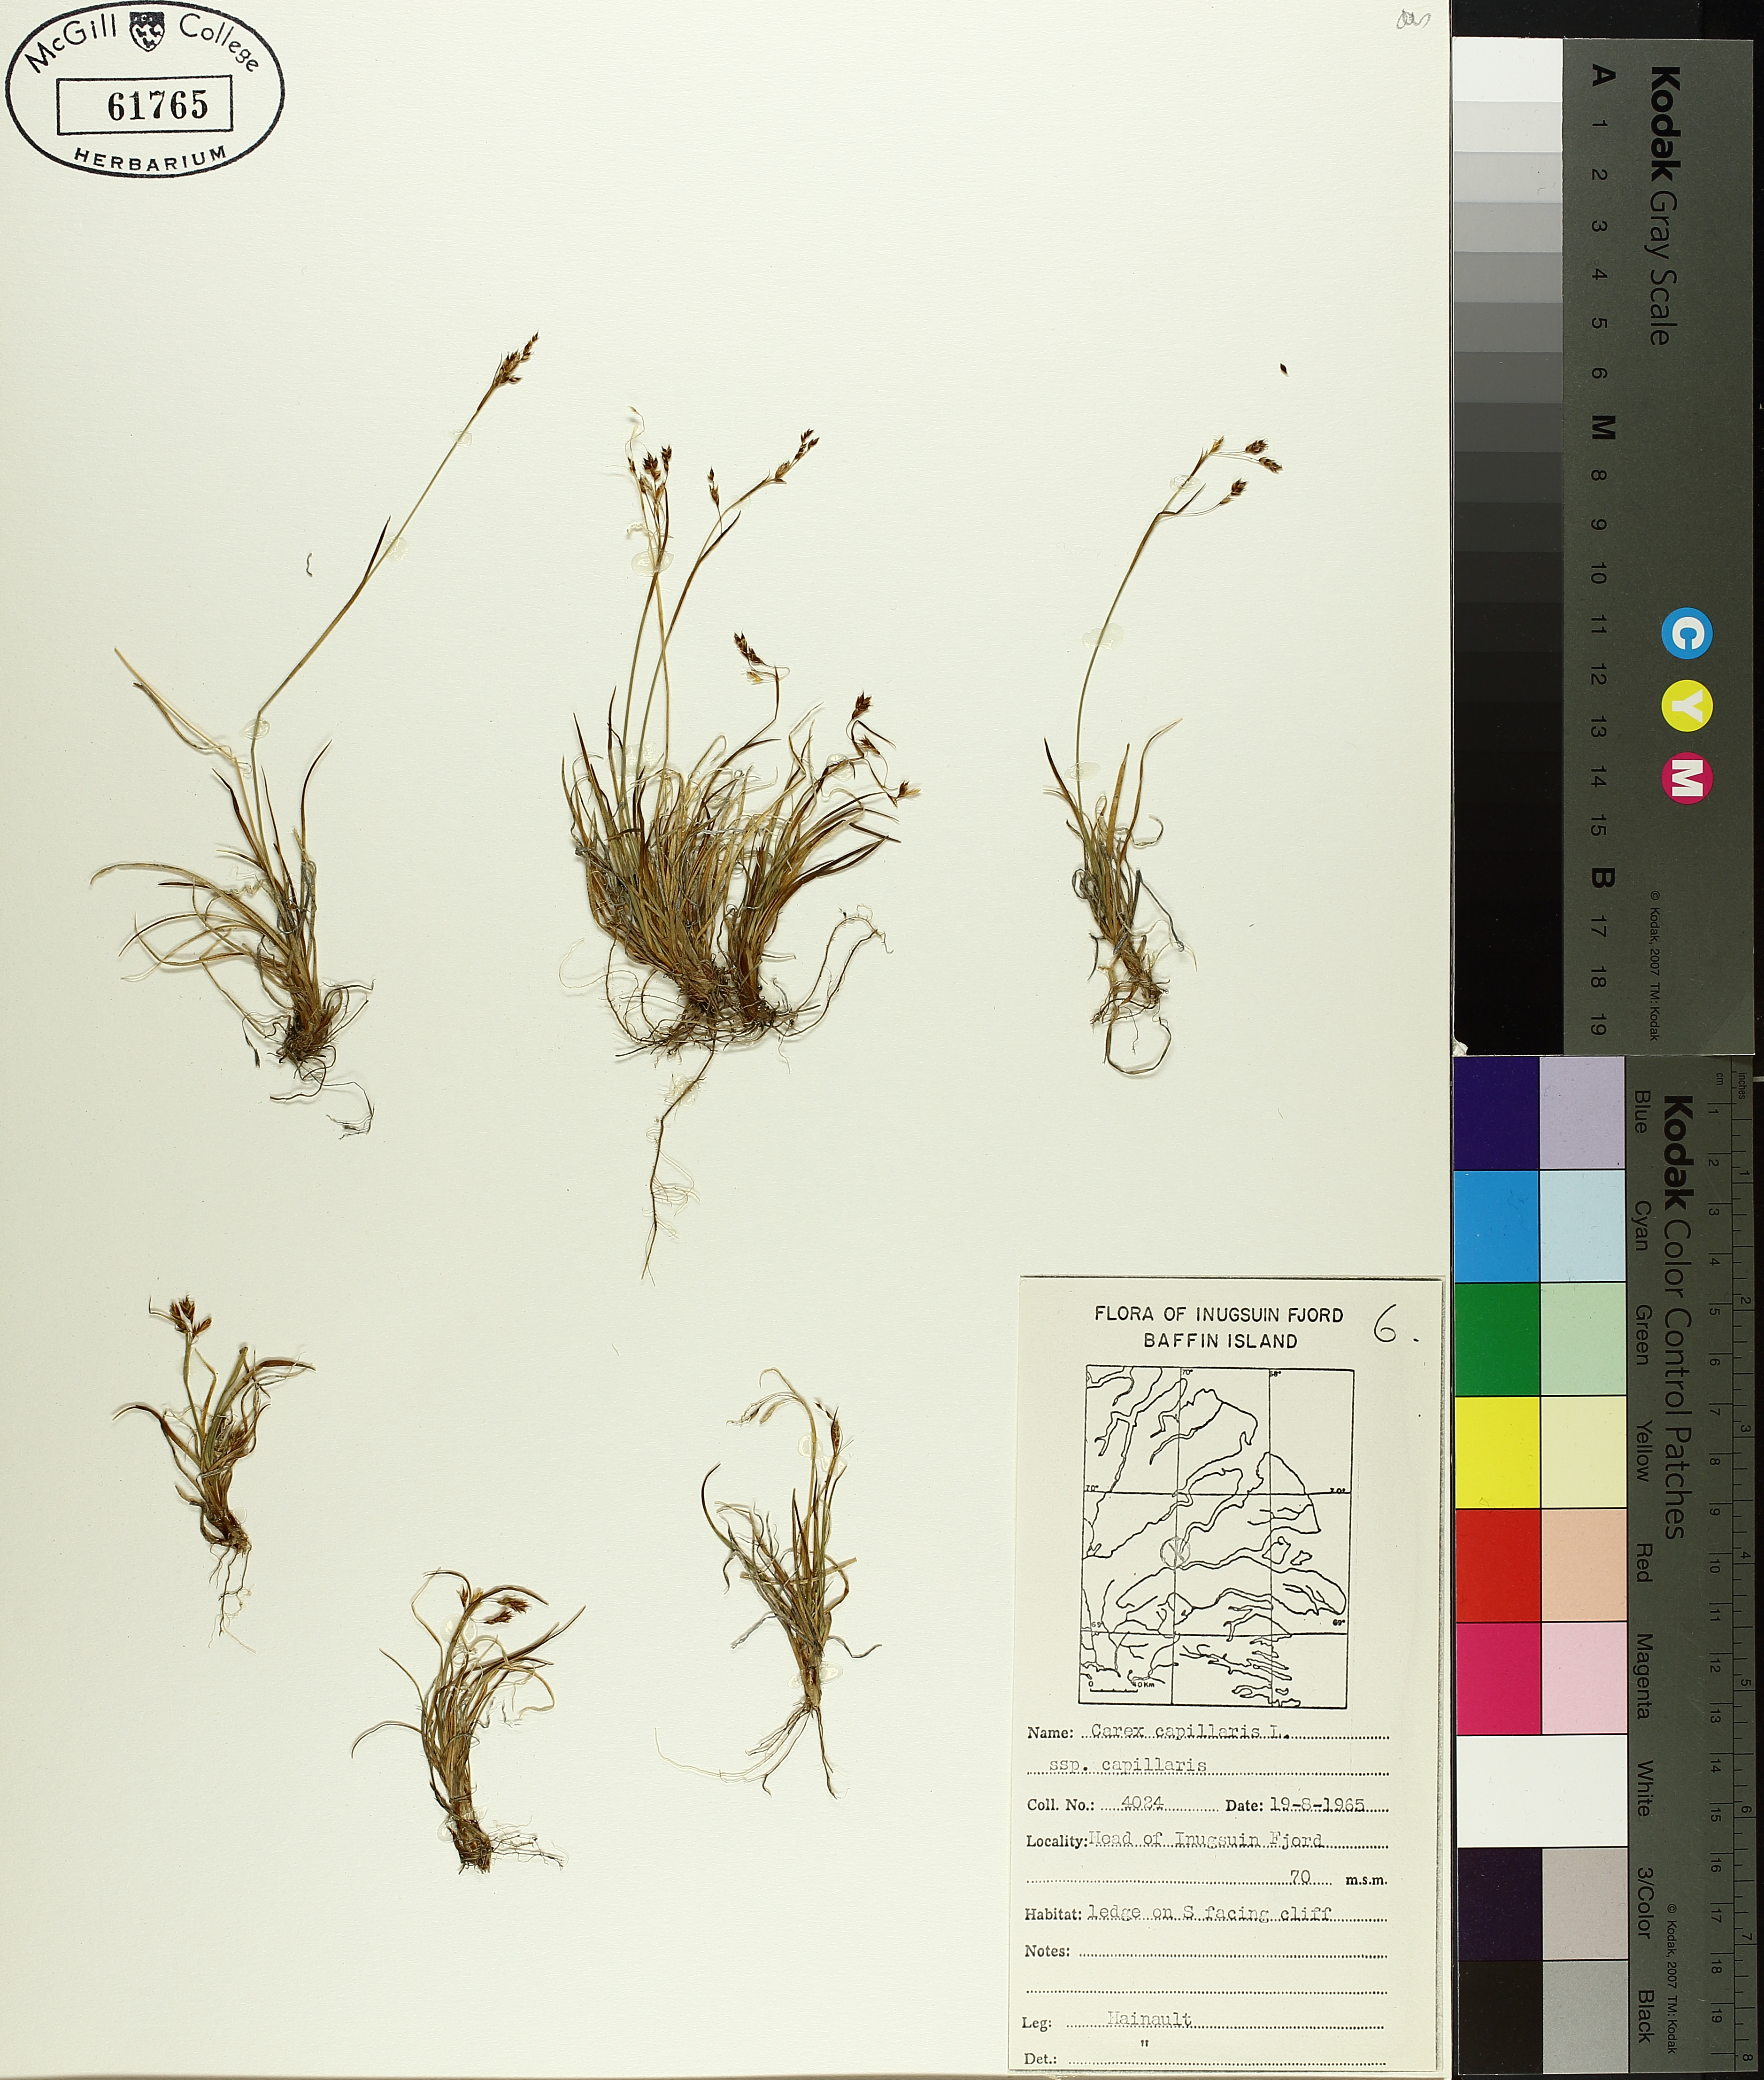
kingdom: Plantae
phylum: Tracheophyta
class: Liliopsida
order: Poales
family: Cyperaceae
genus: Carex
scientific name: Carex capillaris
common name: Hair sedge
